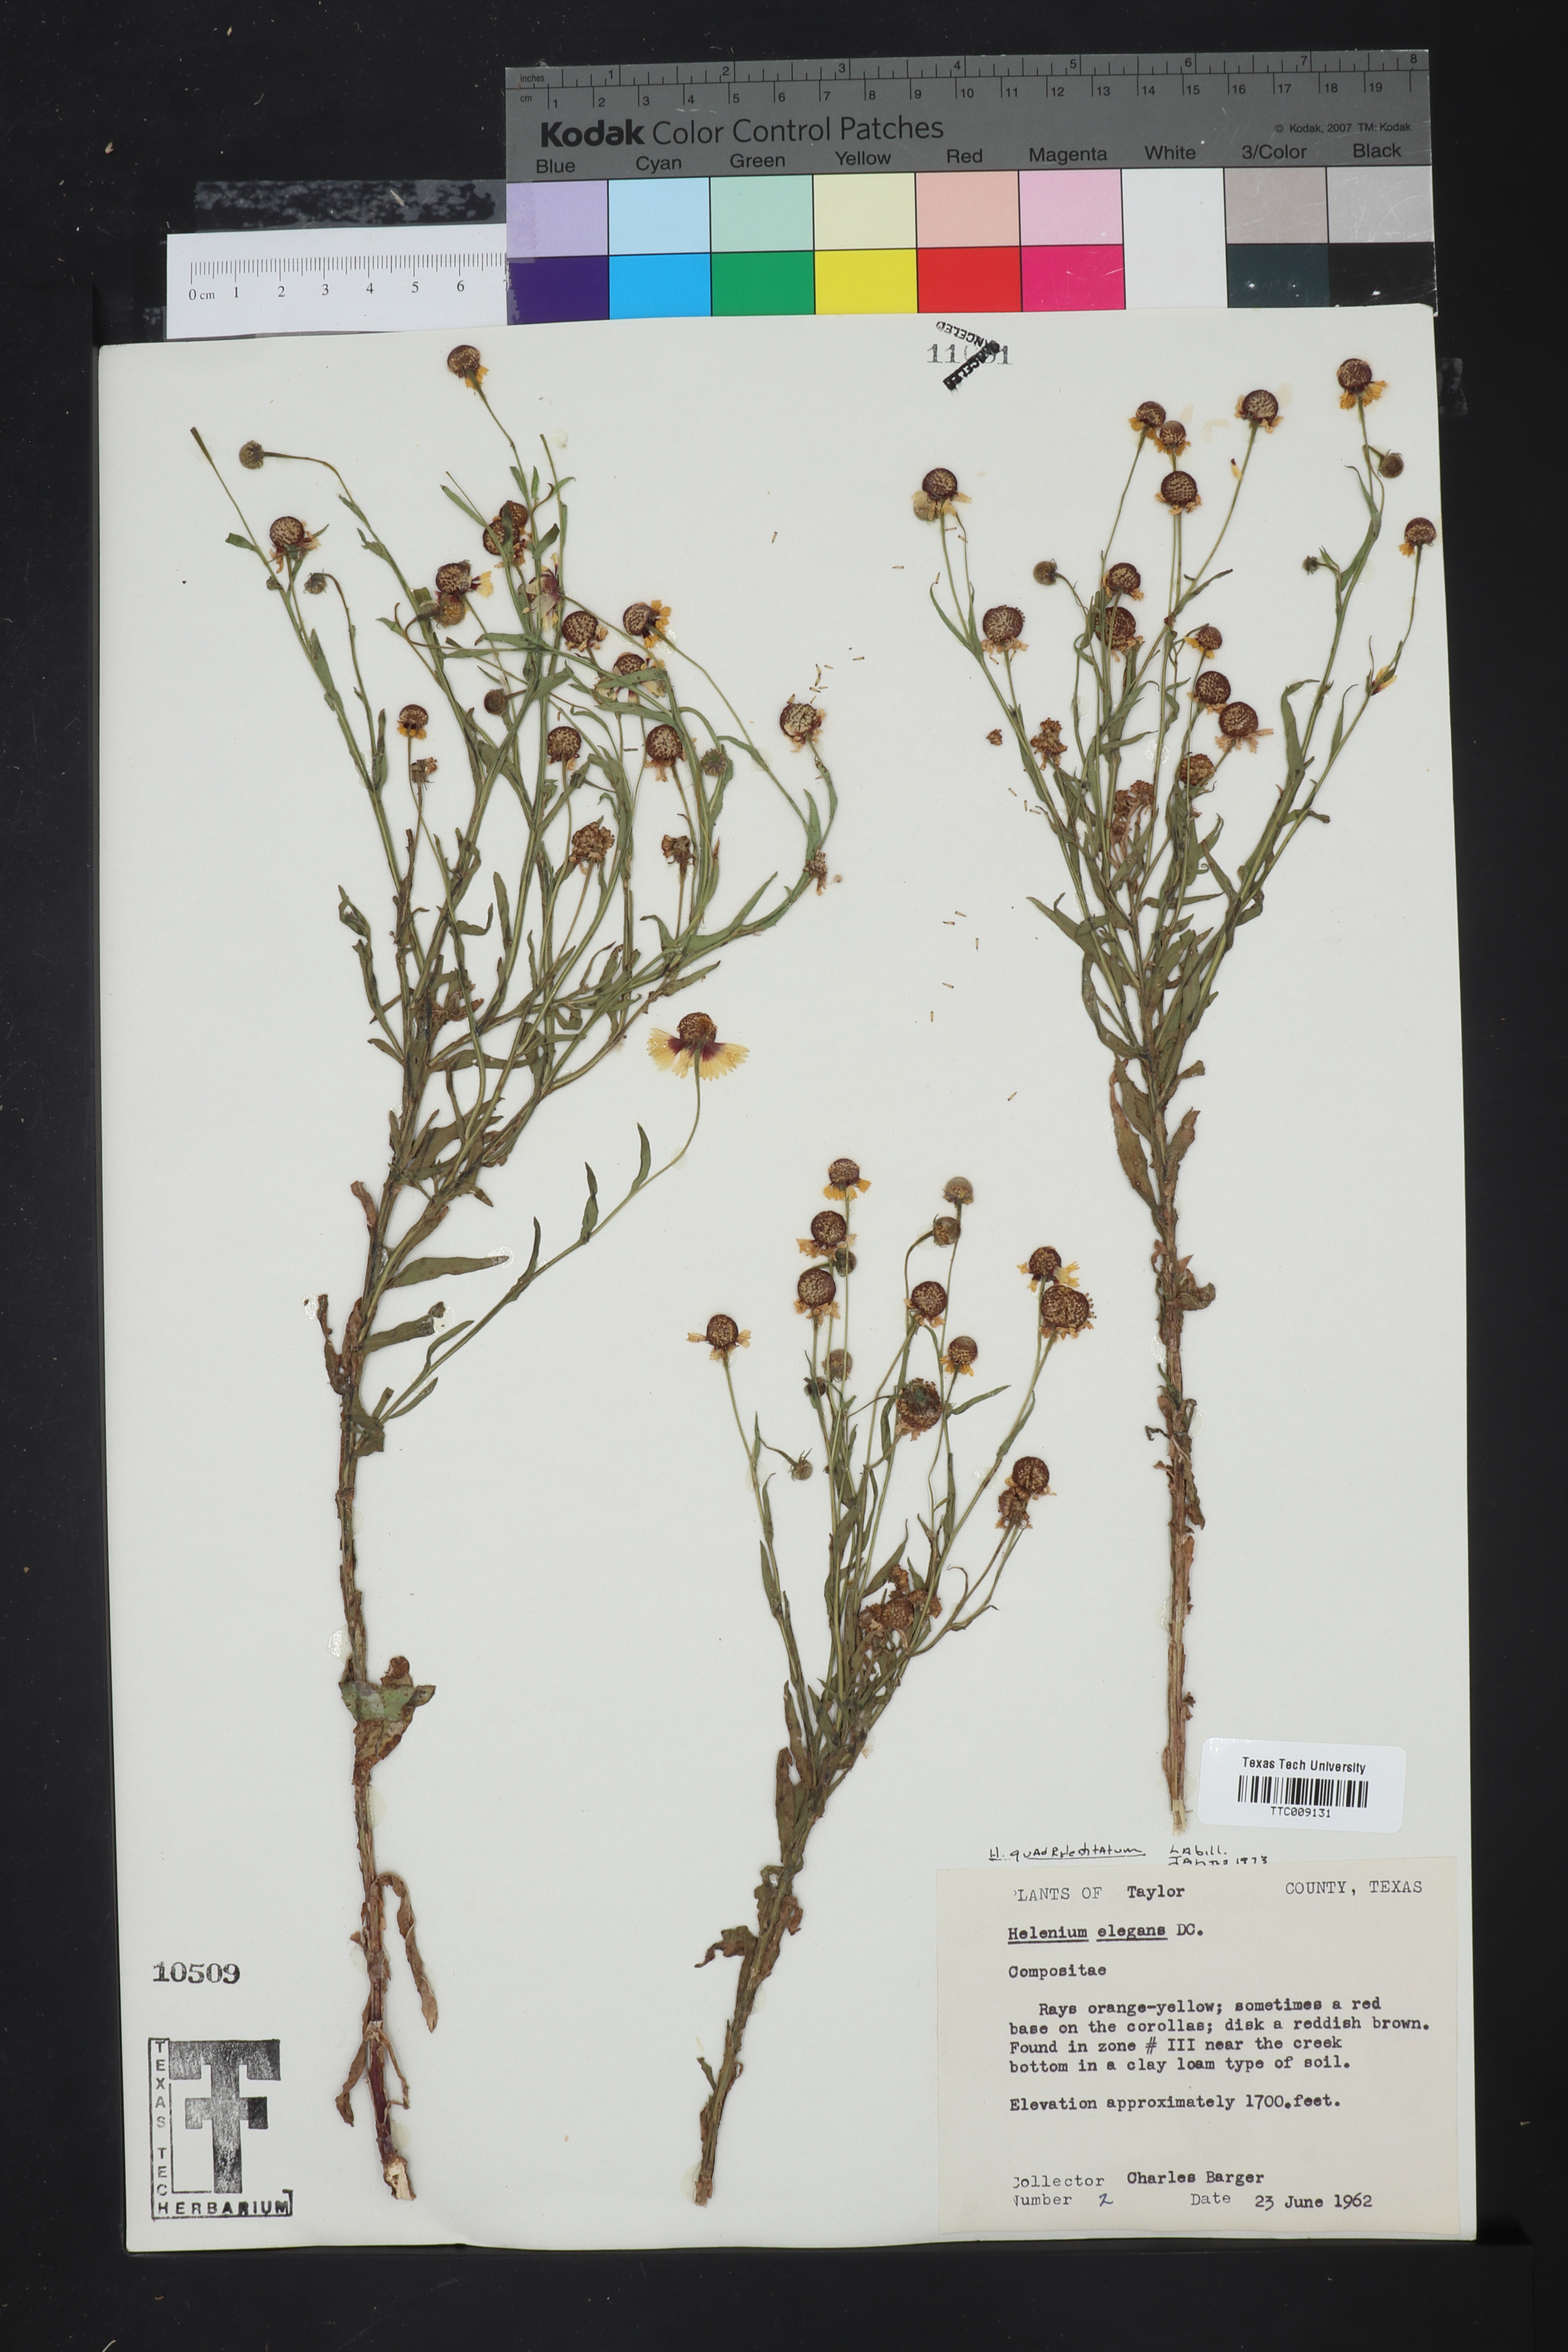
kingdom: Plantae
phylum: Tracheophyta
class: Magnoliopsida
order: Asterales
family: Asteraceae
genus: Helenium
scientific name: Helenium quadridentatum
